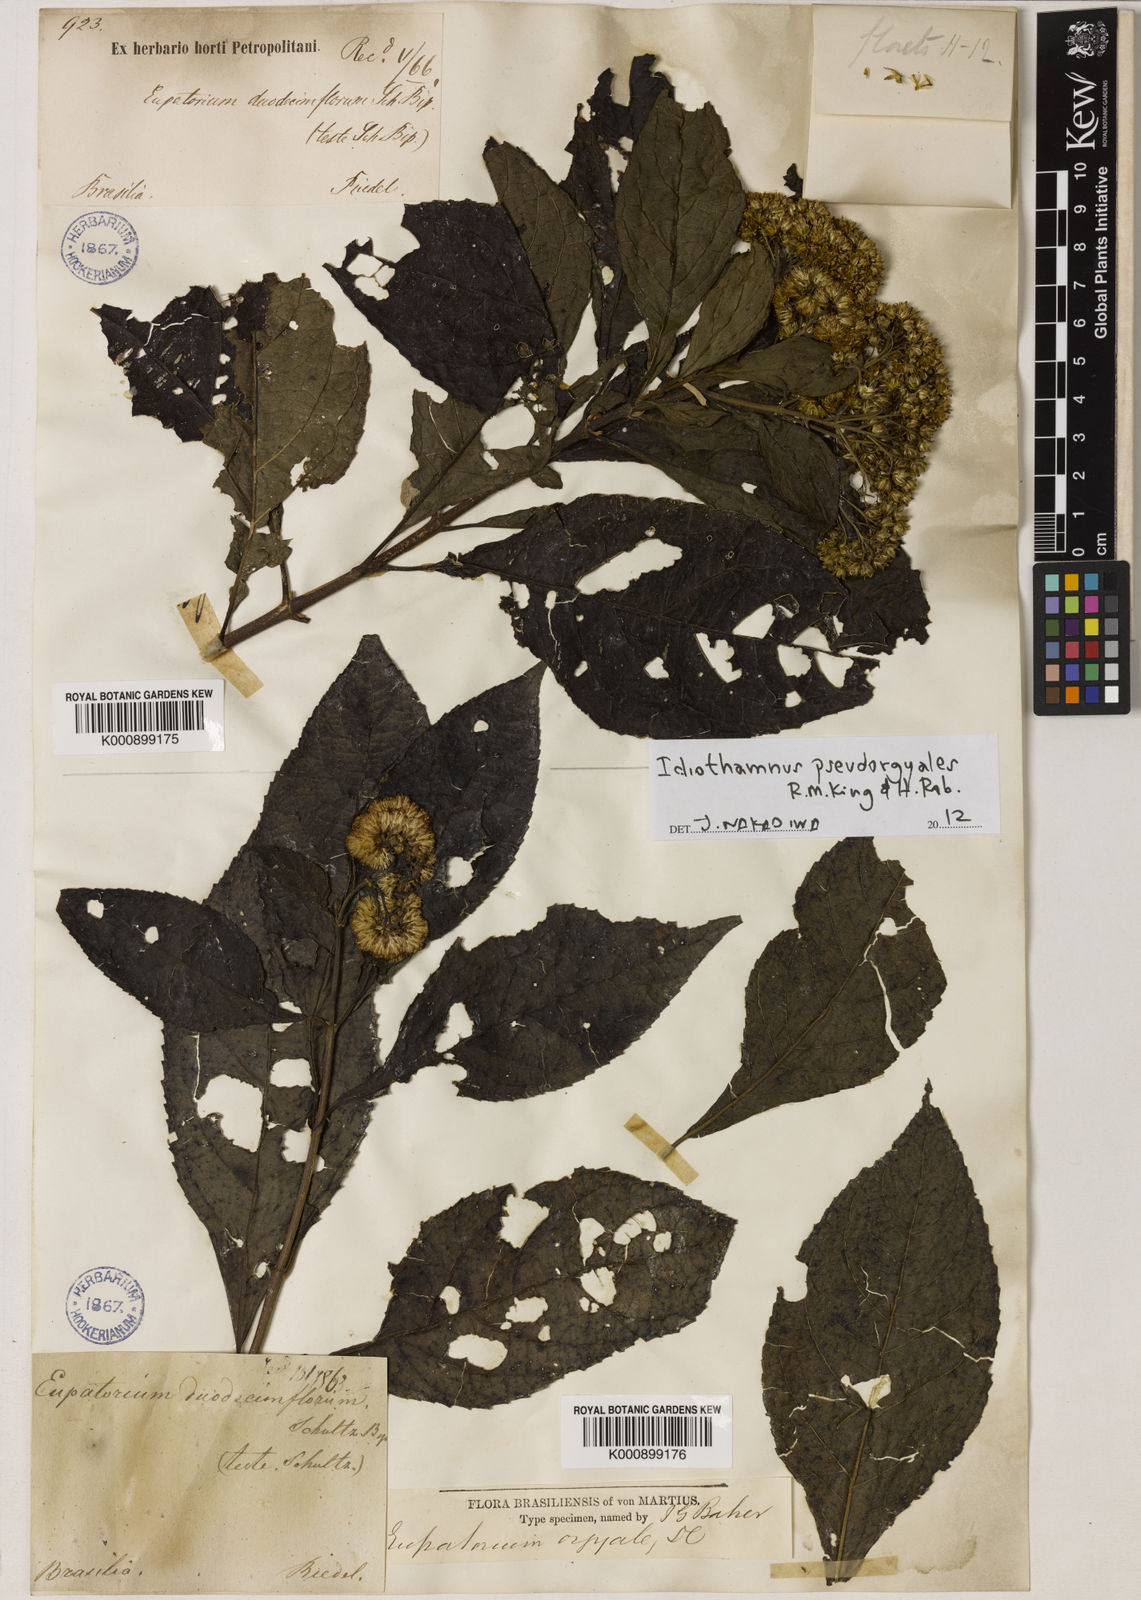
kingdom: Plantae
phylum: Tracheophyta
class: Magnoliopsida
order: Asterales
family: Asteraceae
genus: Idiothamnus
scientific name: Idiothamnus pseudorgyalis
